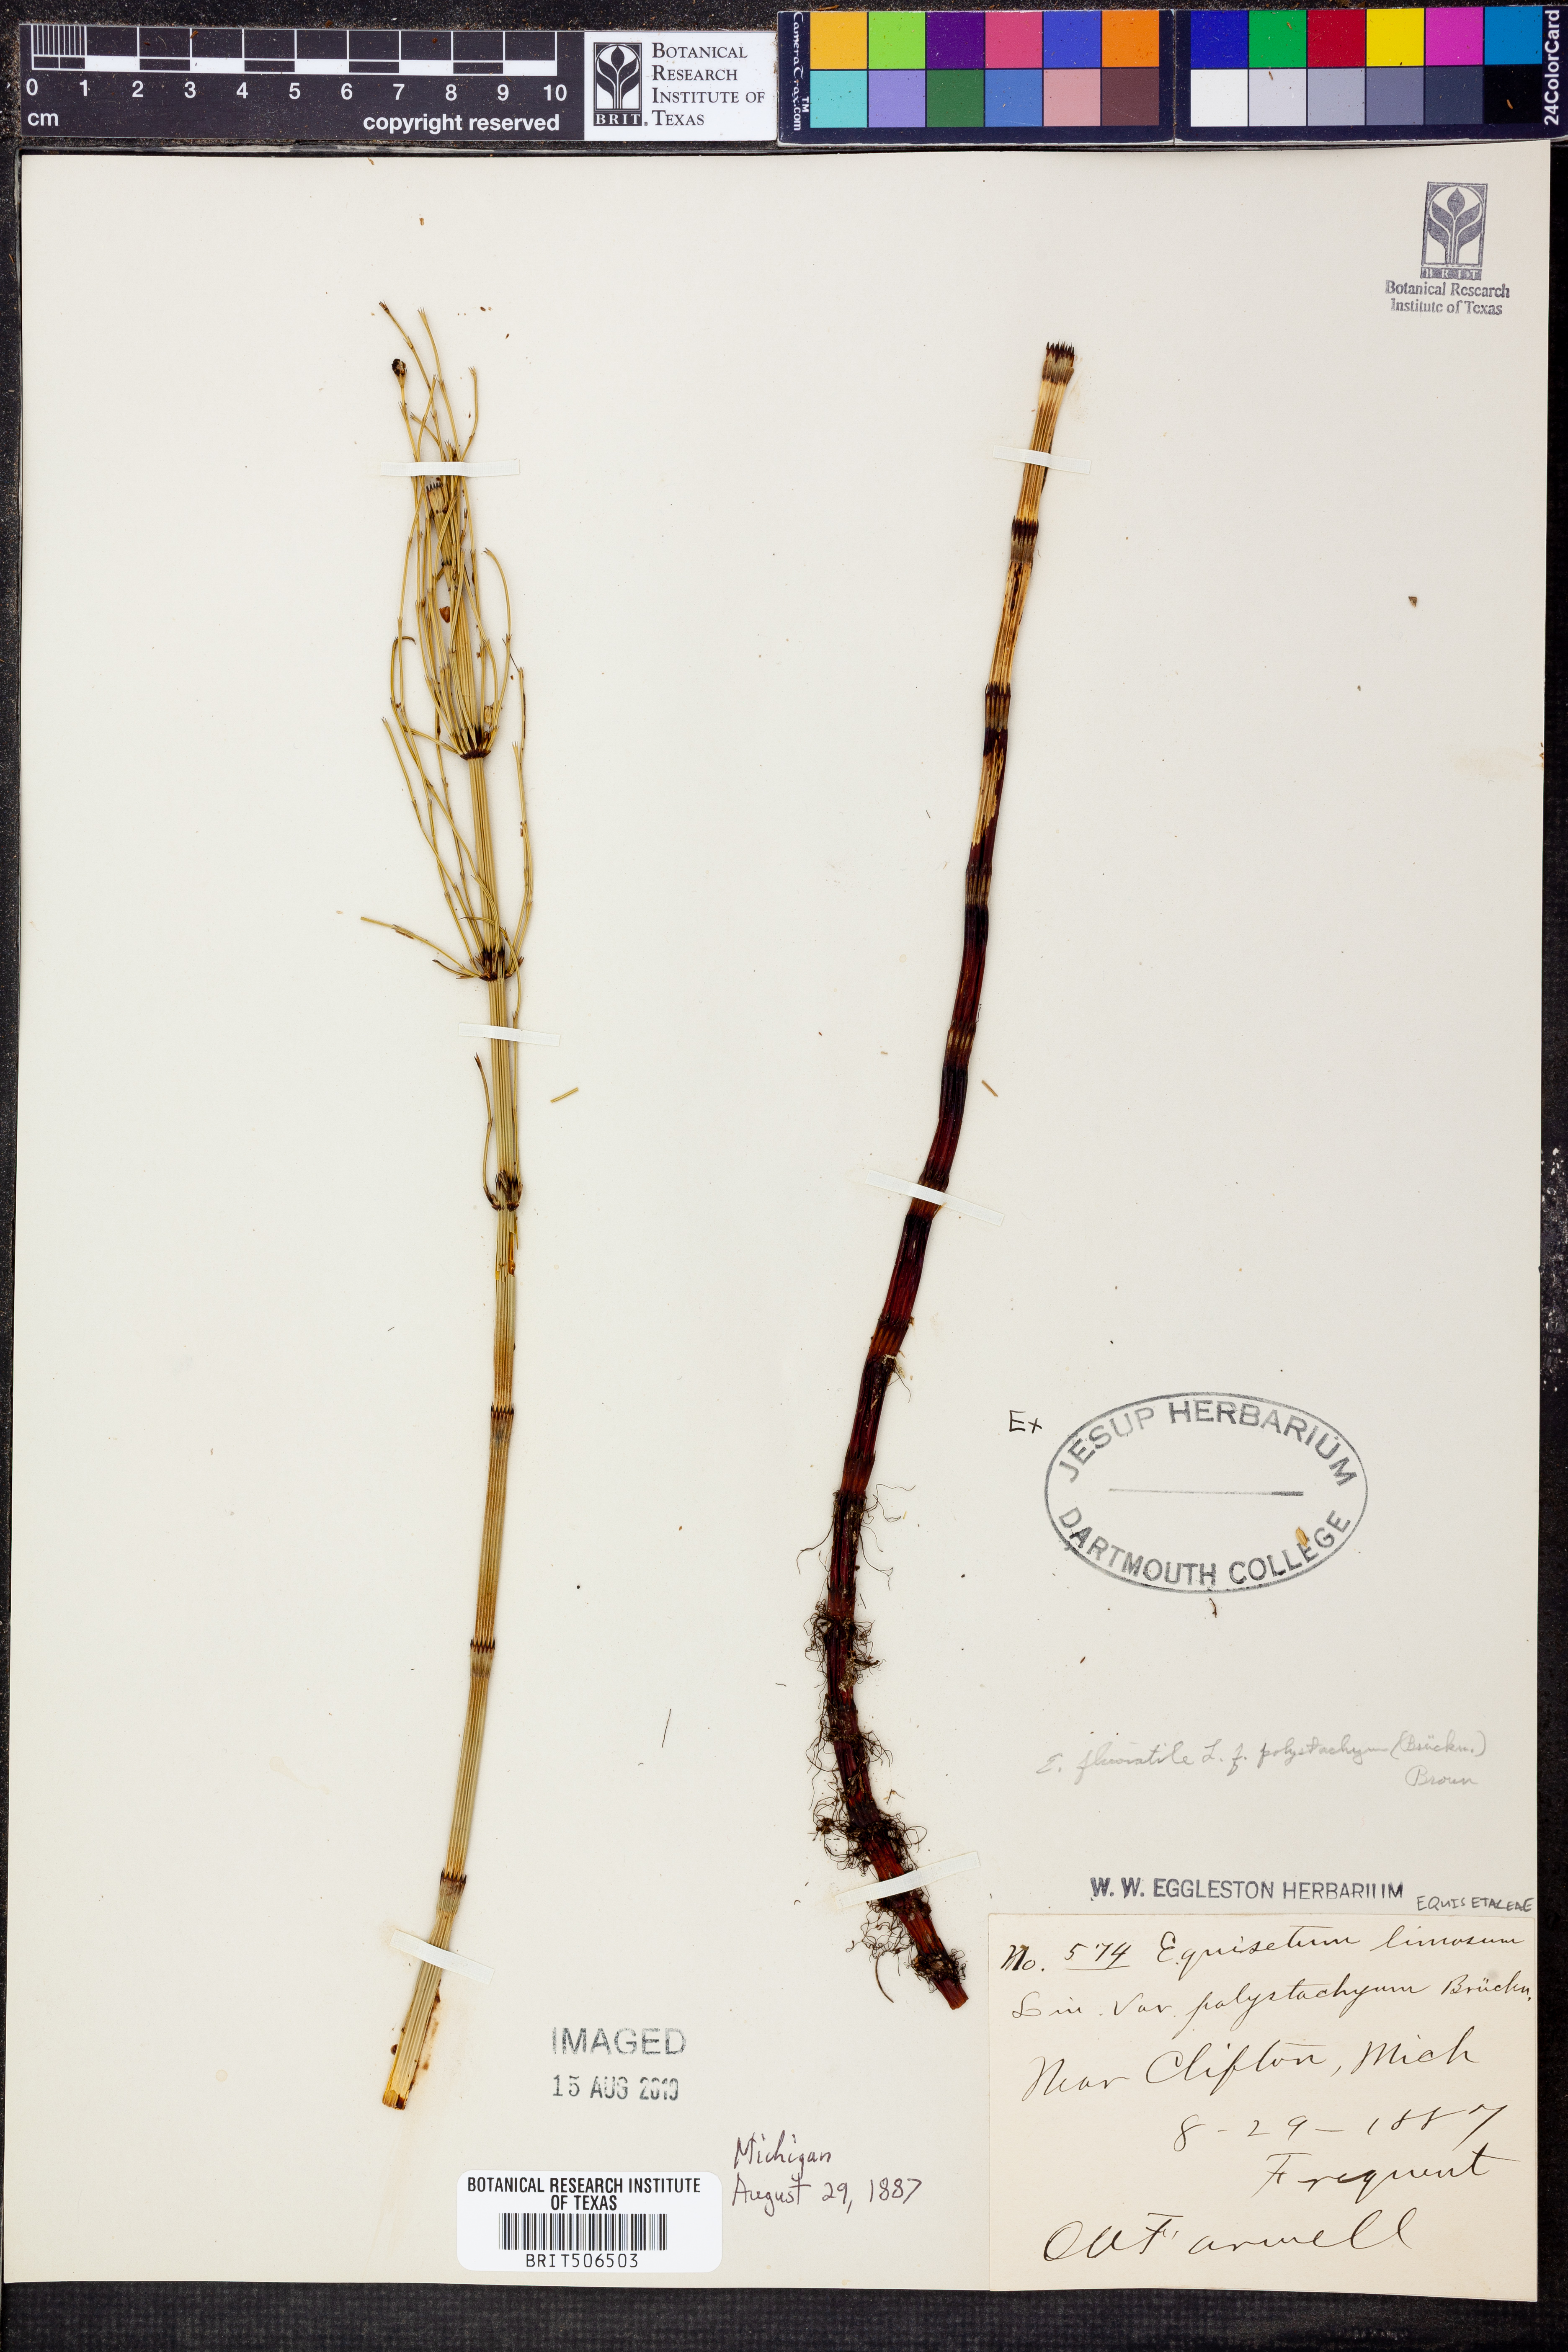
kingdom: Plantae
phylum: Tracheophyta
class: Polypodiopsida
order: Equisetales
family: Equisetaceae
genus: Equisetum
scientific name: Equisetum fluviatile
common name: Water horsetail
